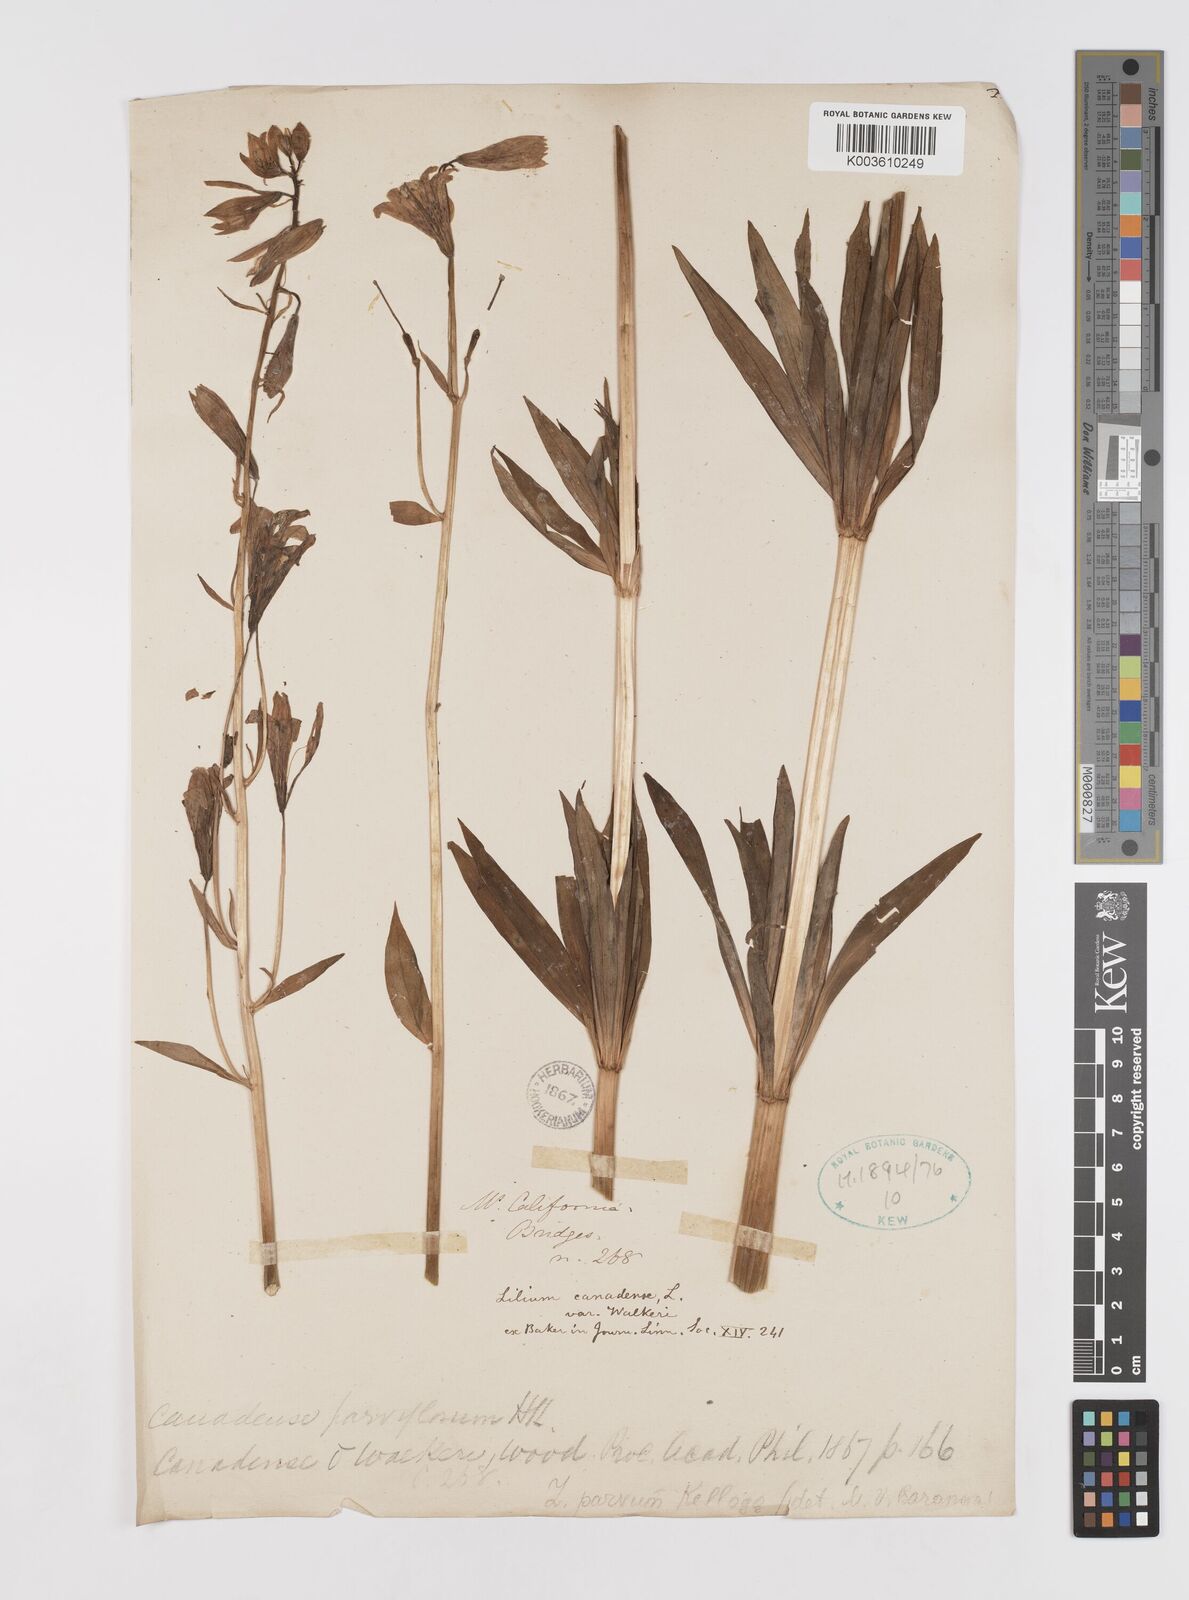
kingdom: Plantae
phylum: Tracheophyta
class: Liliopsida
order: Liliales
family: Liliaceae
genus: Lilium
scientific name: Lilium columbianum
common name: Columbia lily
